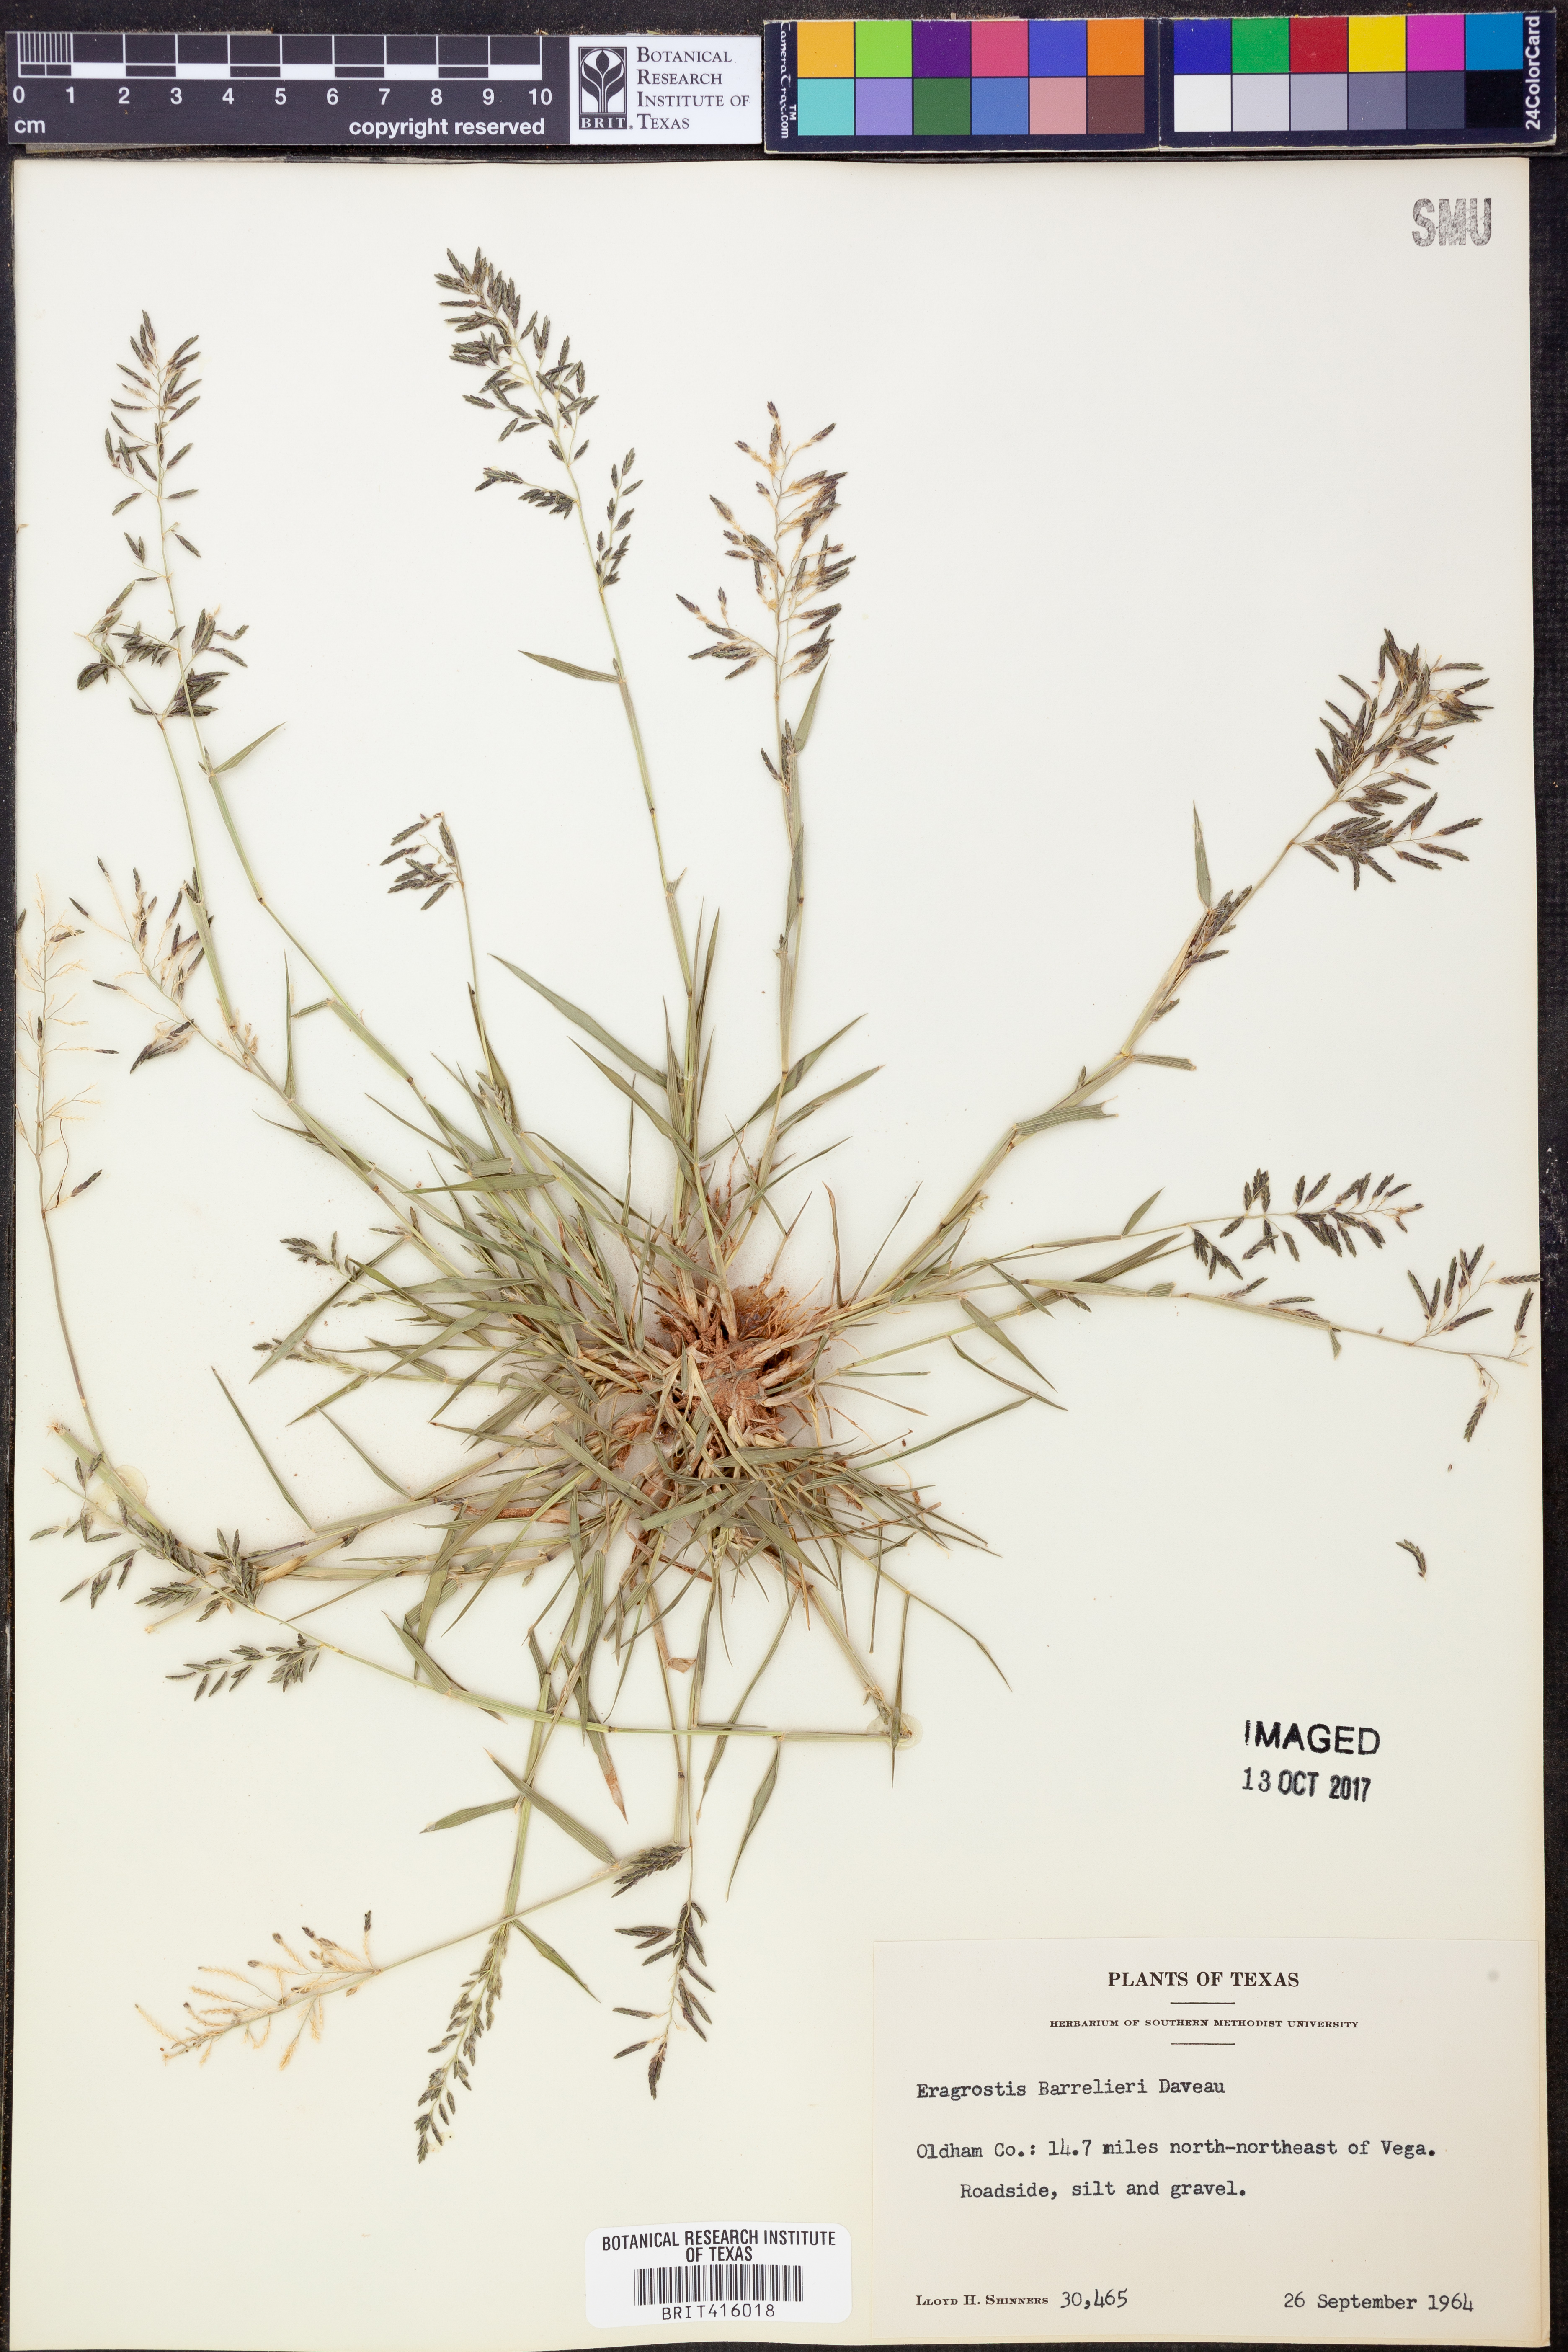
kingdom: Plantae
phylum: Tracheophyta
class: Liliopsida
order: Poales
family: Poaceae
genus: Eragrostis
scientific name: Eragrostis barrelieri
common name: Mediterranean lovegrass
